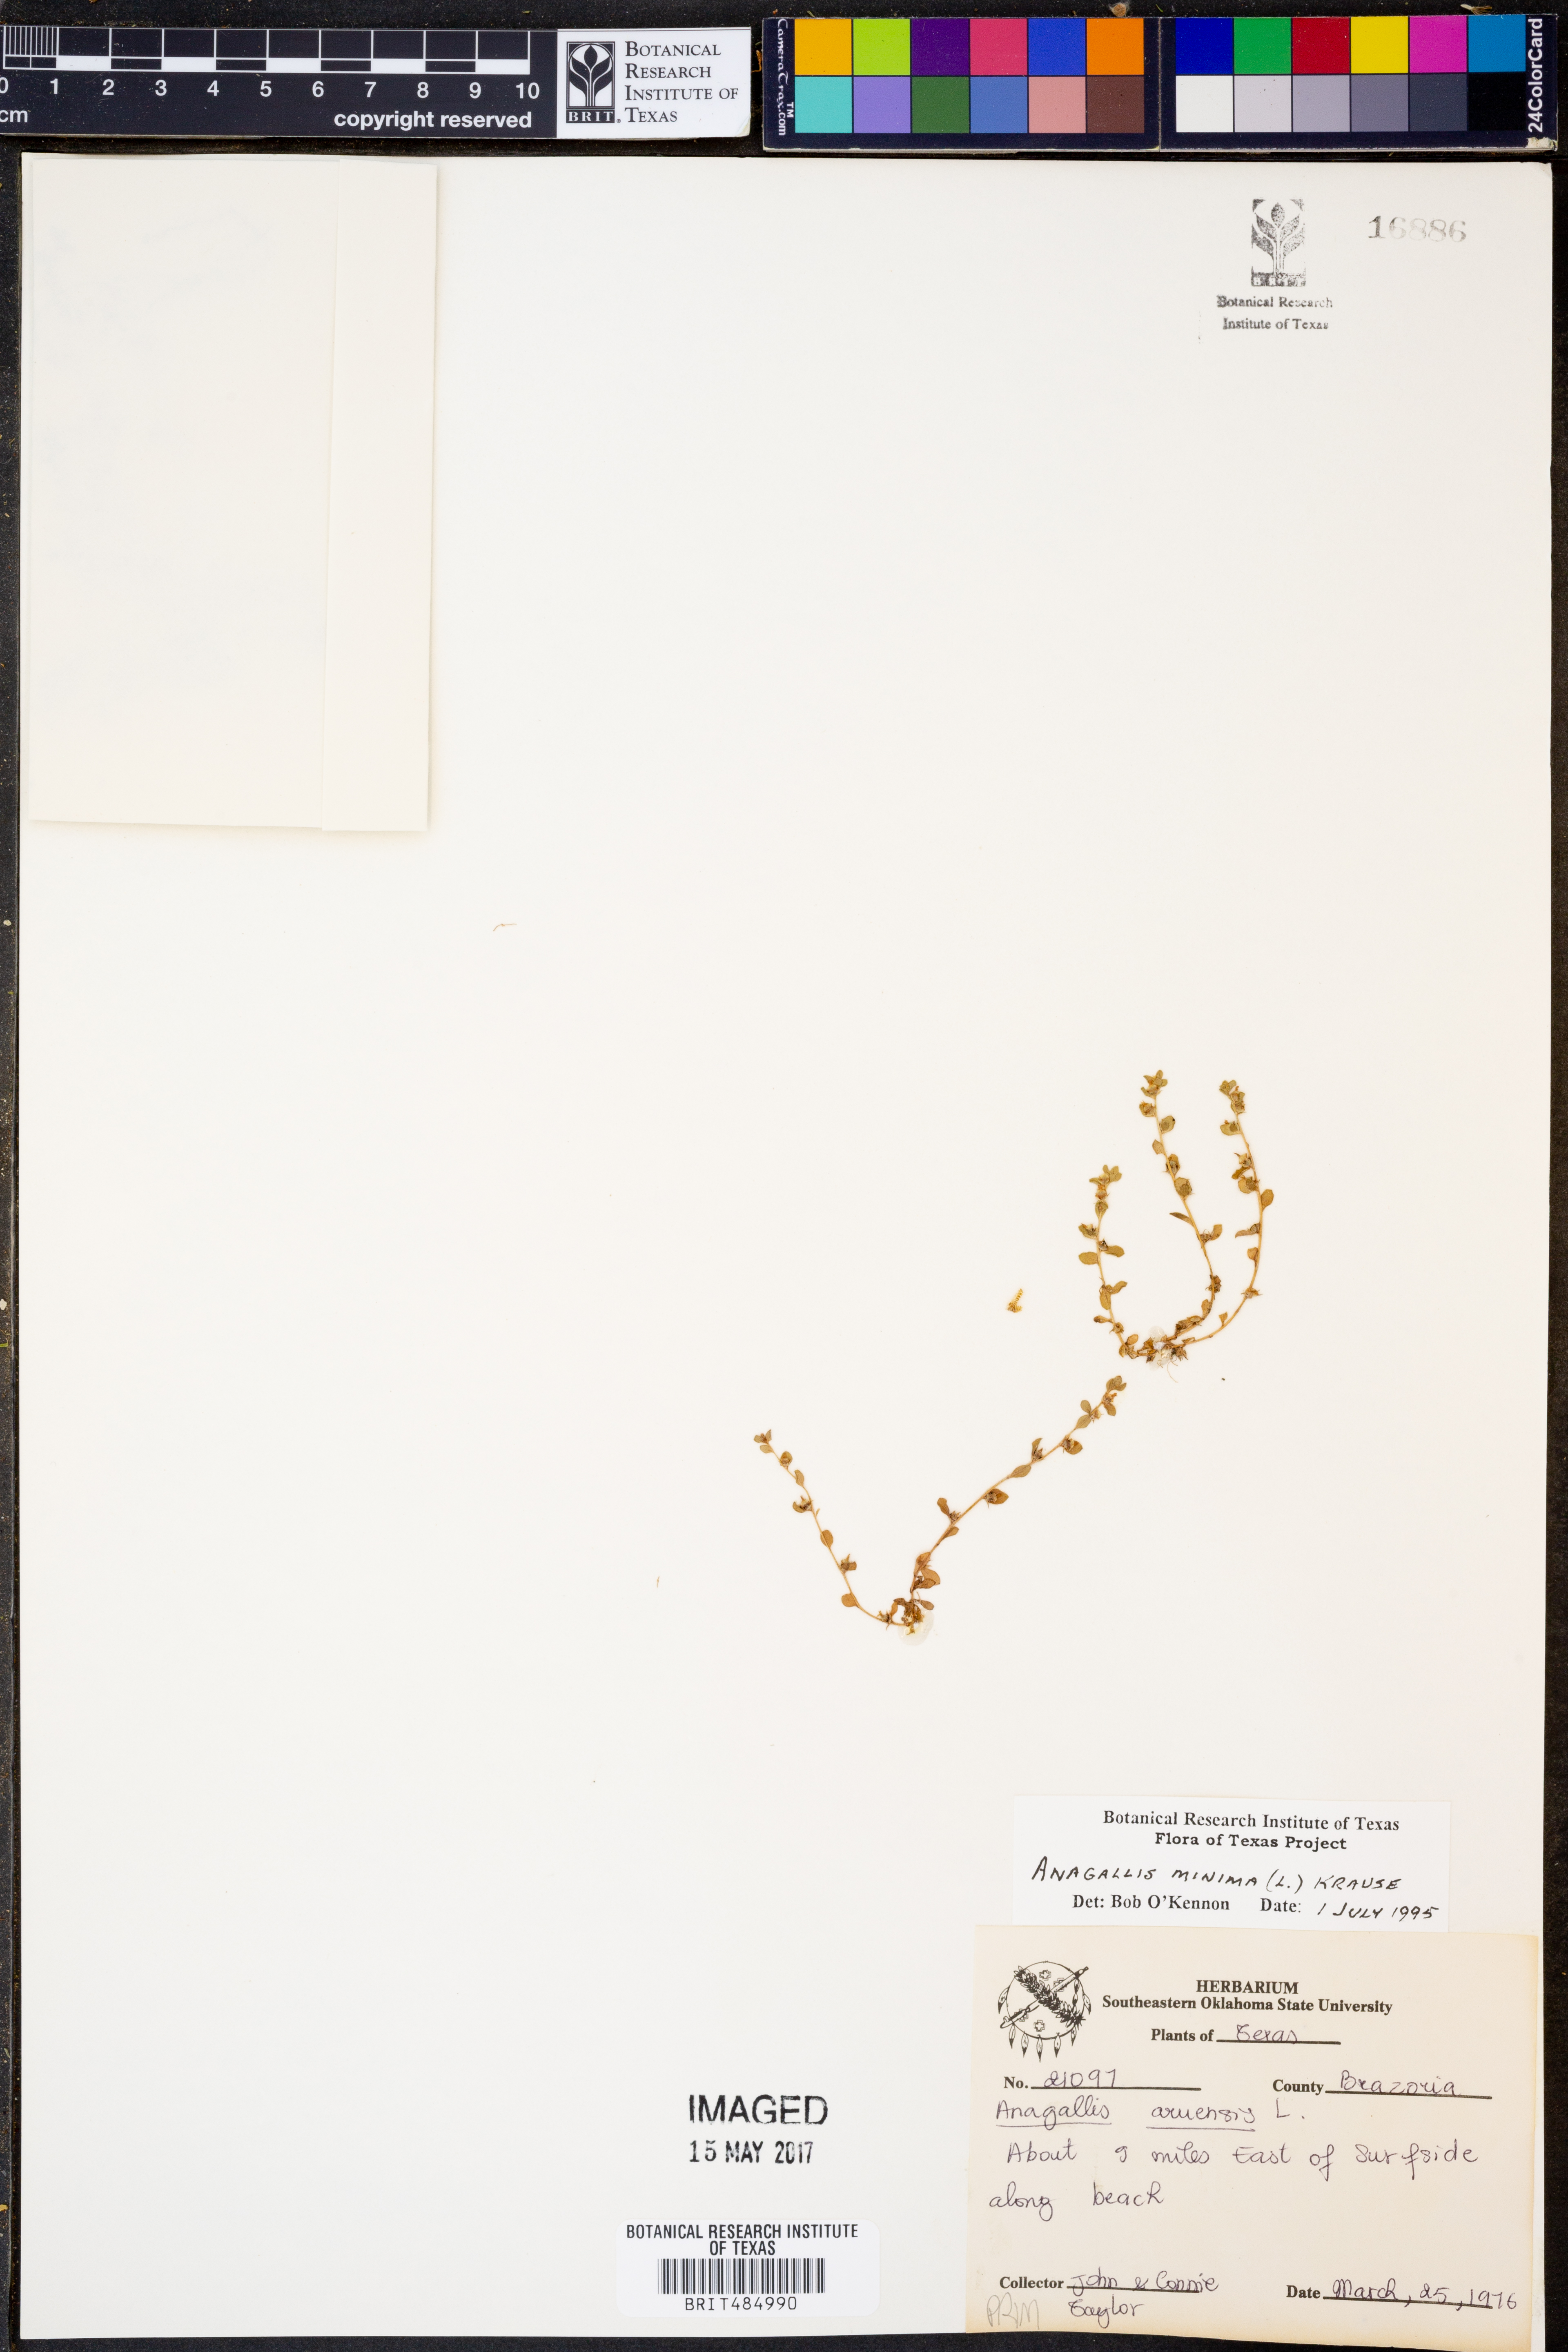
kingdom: Plantae
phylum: Tracheophyta
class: Magnoliopsida
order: Ericales
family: Primulaceae
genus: Lysimachia
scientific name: Lysimachia minima
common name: Chaffweed
